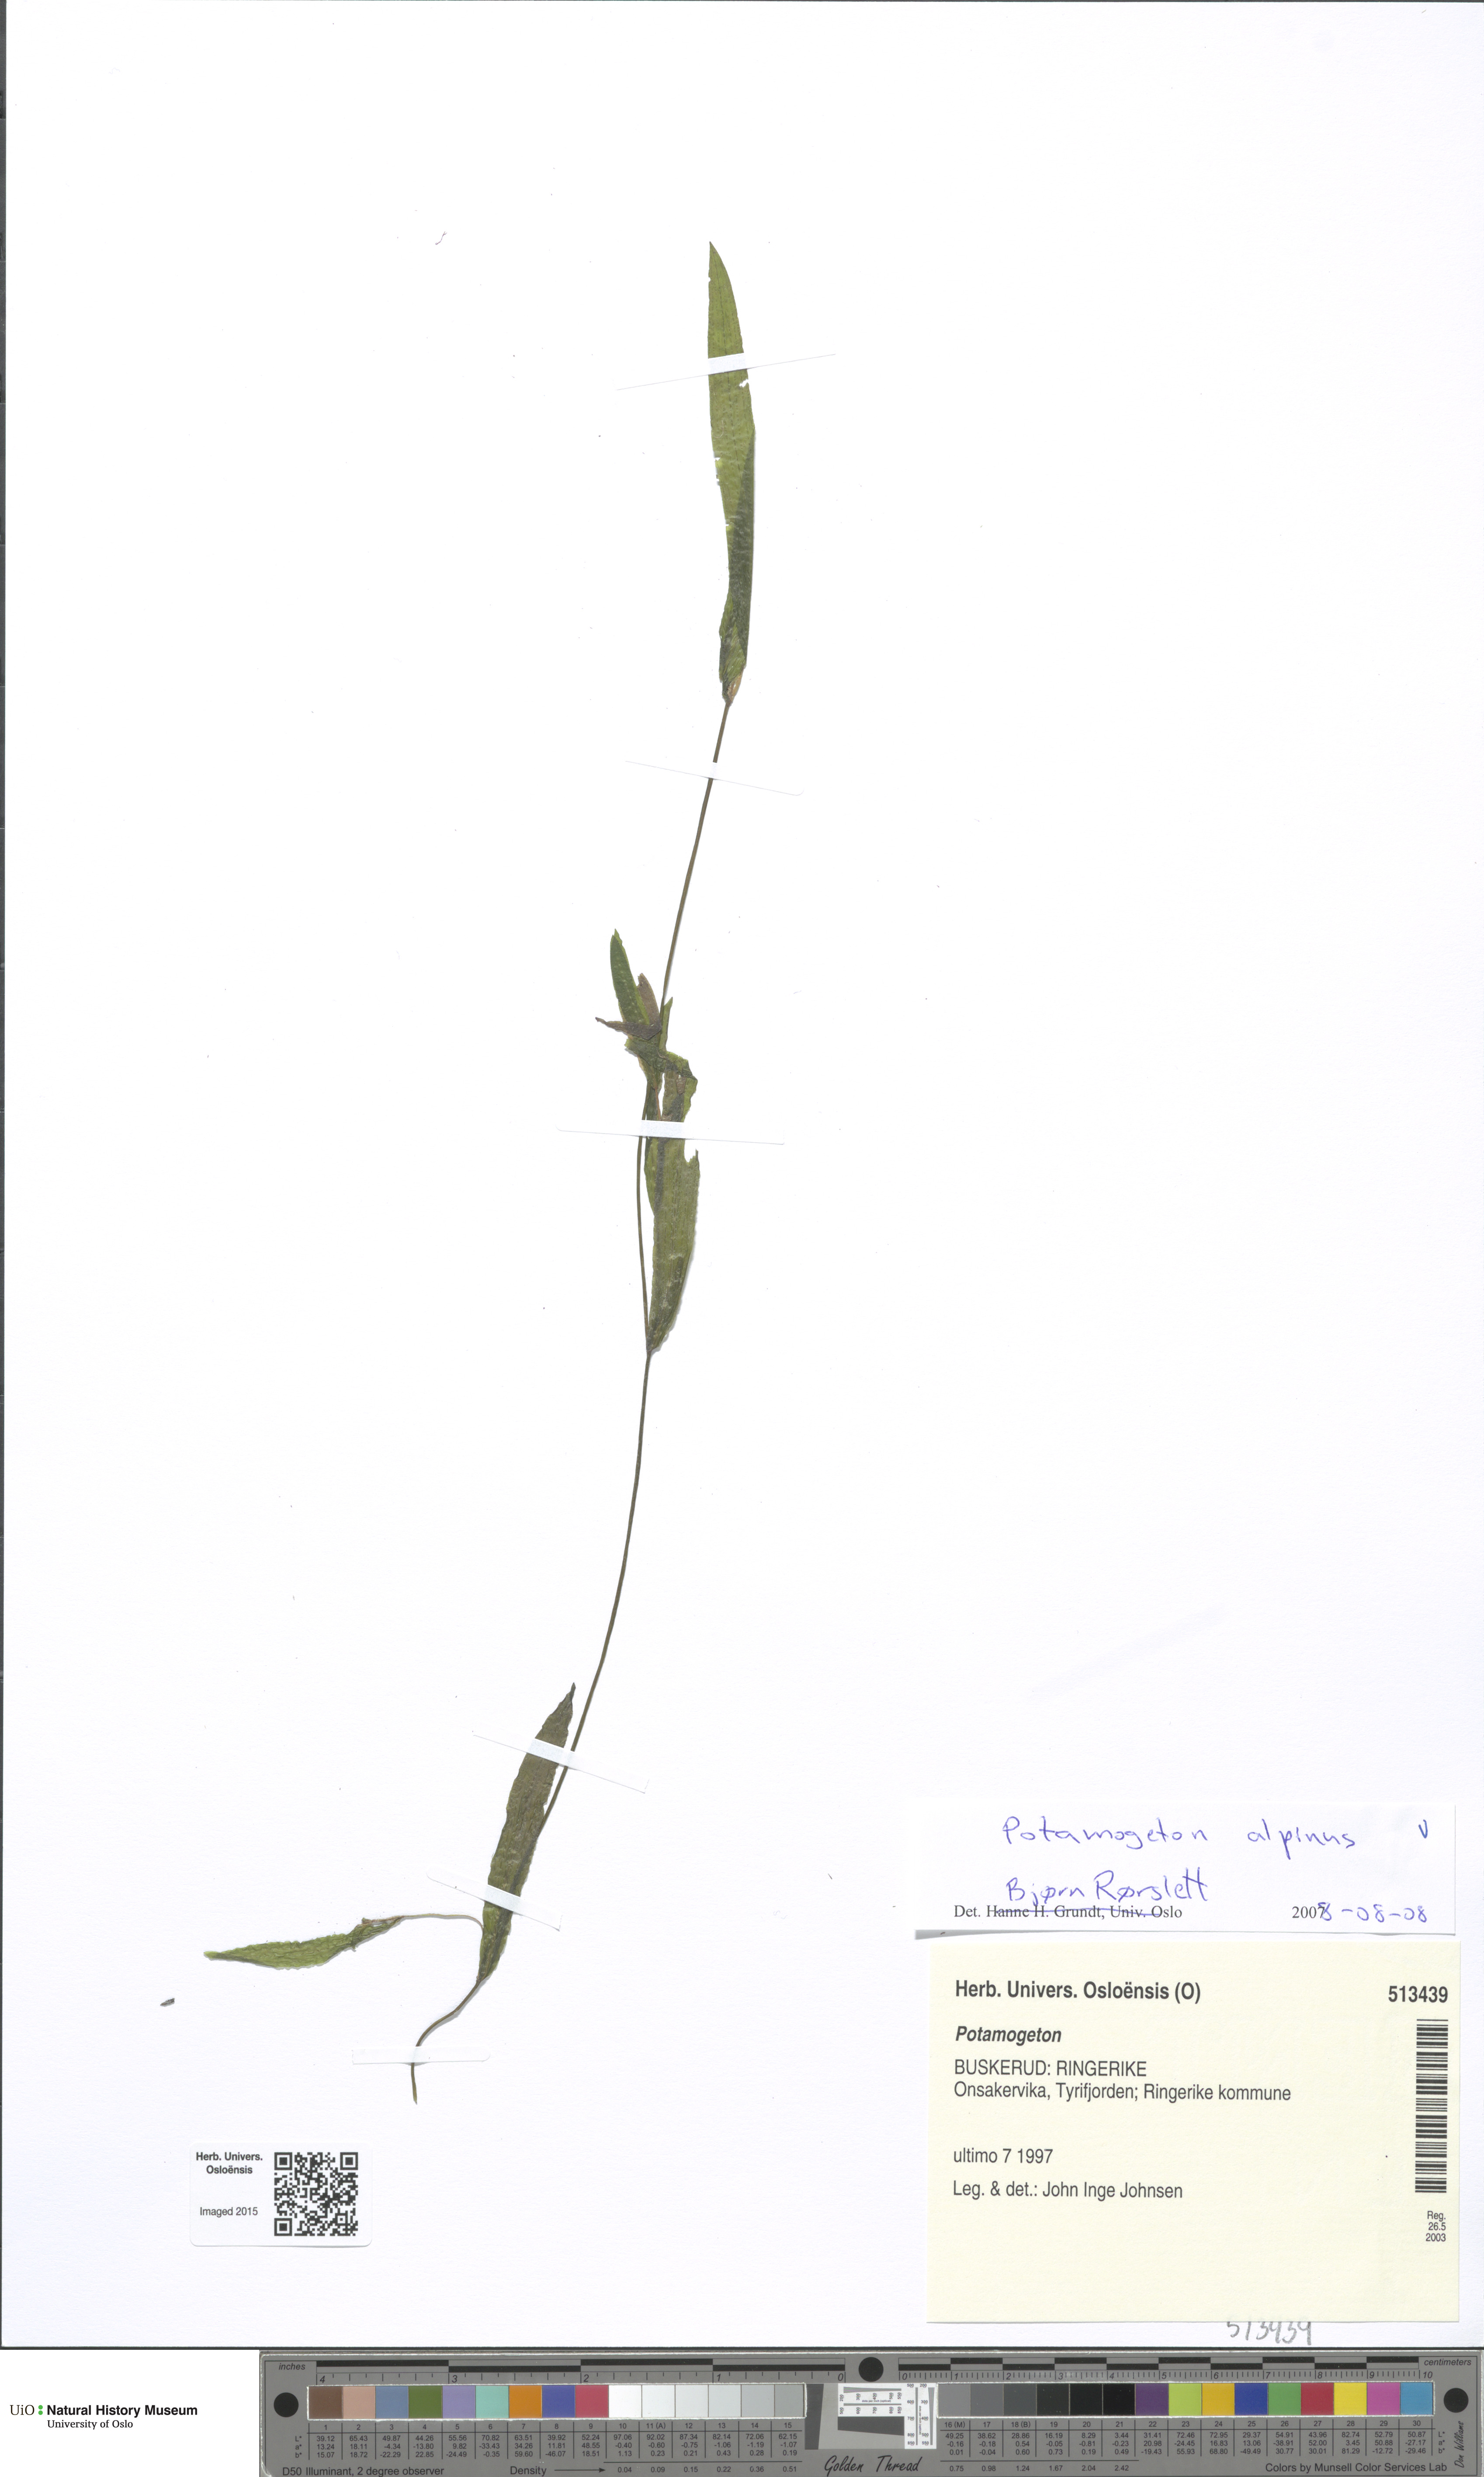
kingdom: Plantae
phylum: Tracheophyta
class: Liliopsida
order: Alismatales
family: Potamogetonaceae
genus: Potamogeton
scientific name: Potamogeton alpinus
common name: Red pondweed
